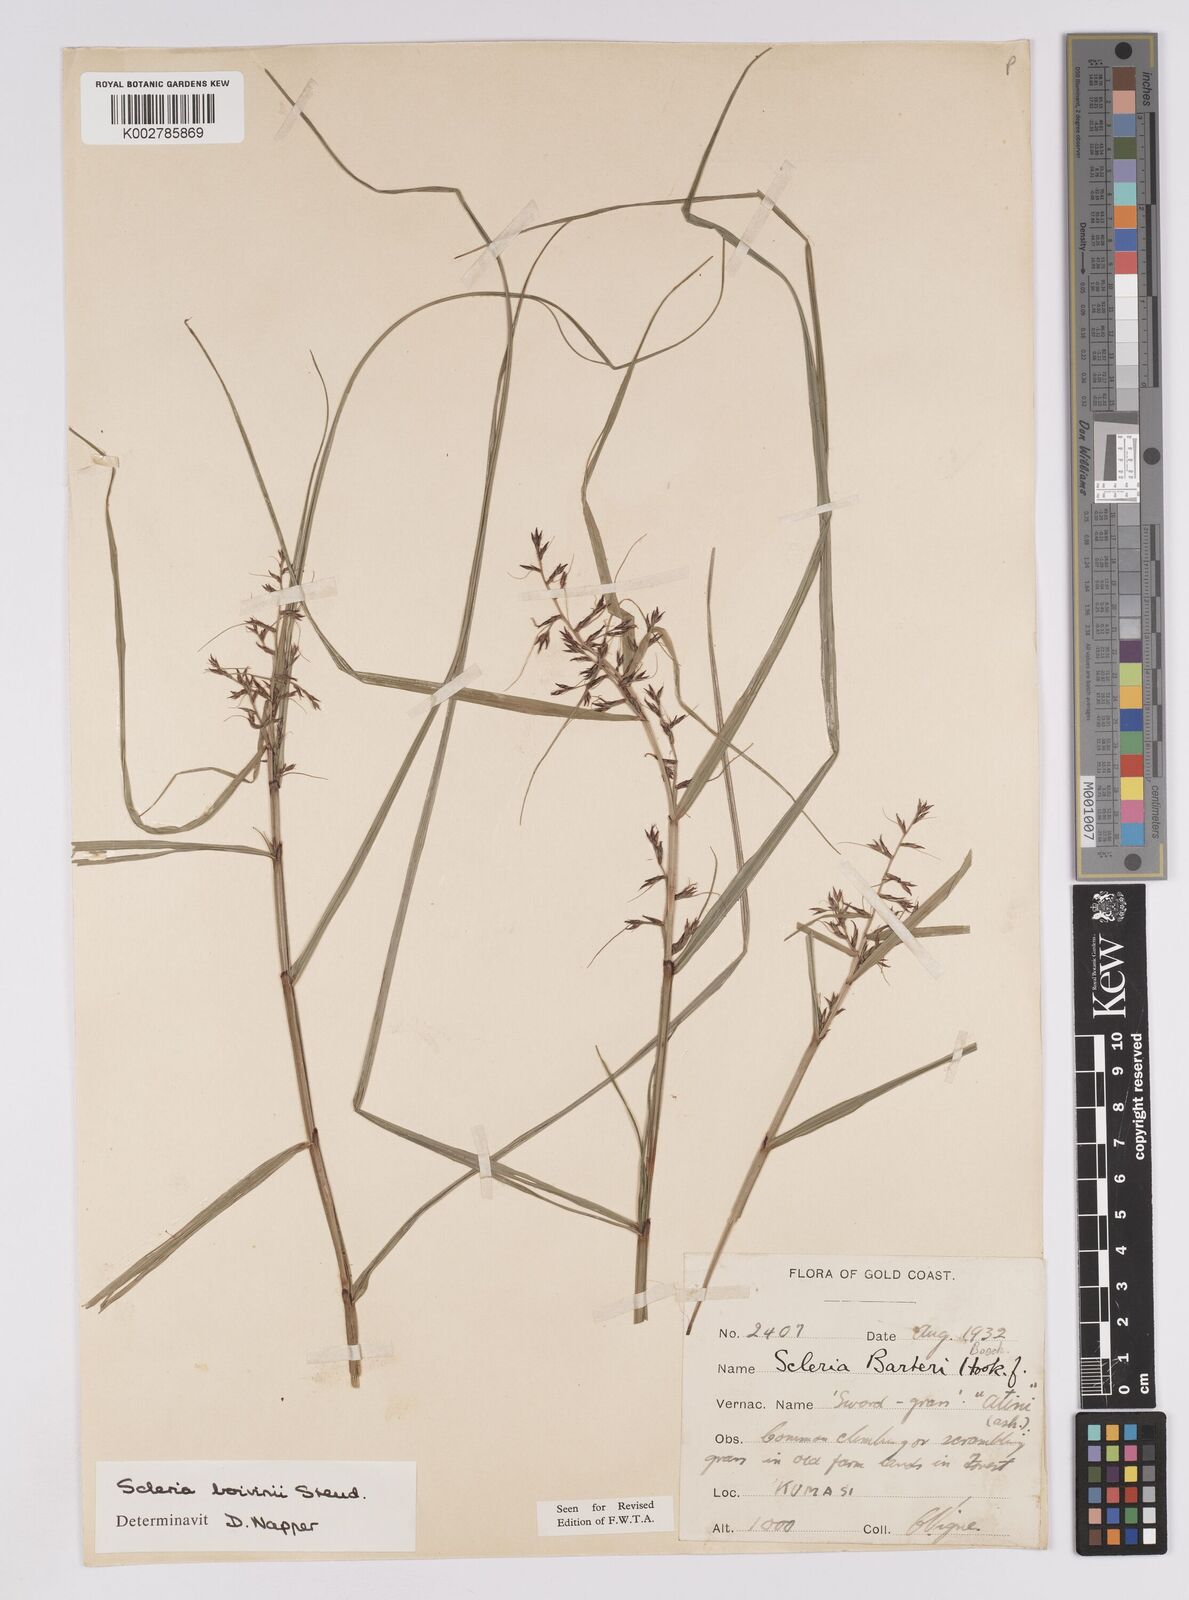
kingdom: Plantae
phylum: Tracheophyta
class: Liliopsida
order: Poales
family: Cyperaceae
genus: Scleria
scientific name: Scleria boivinii
